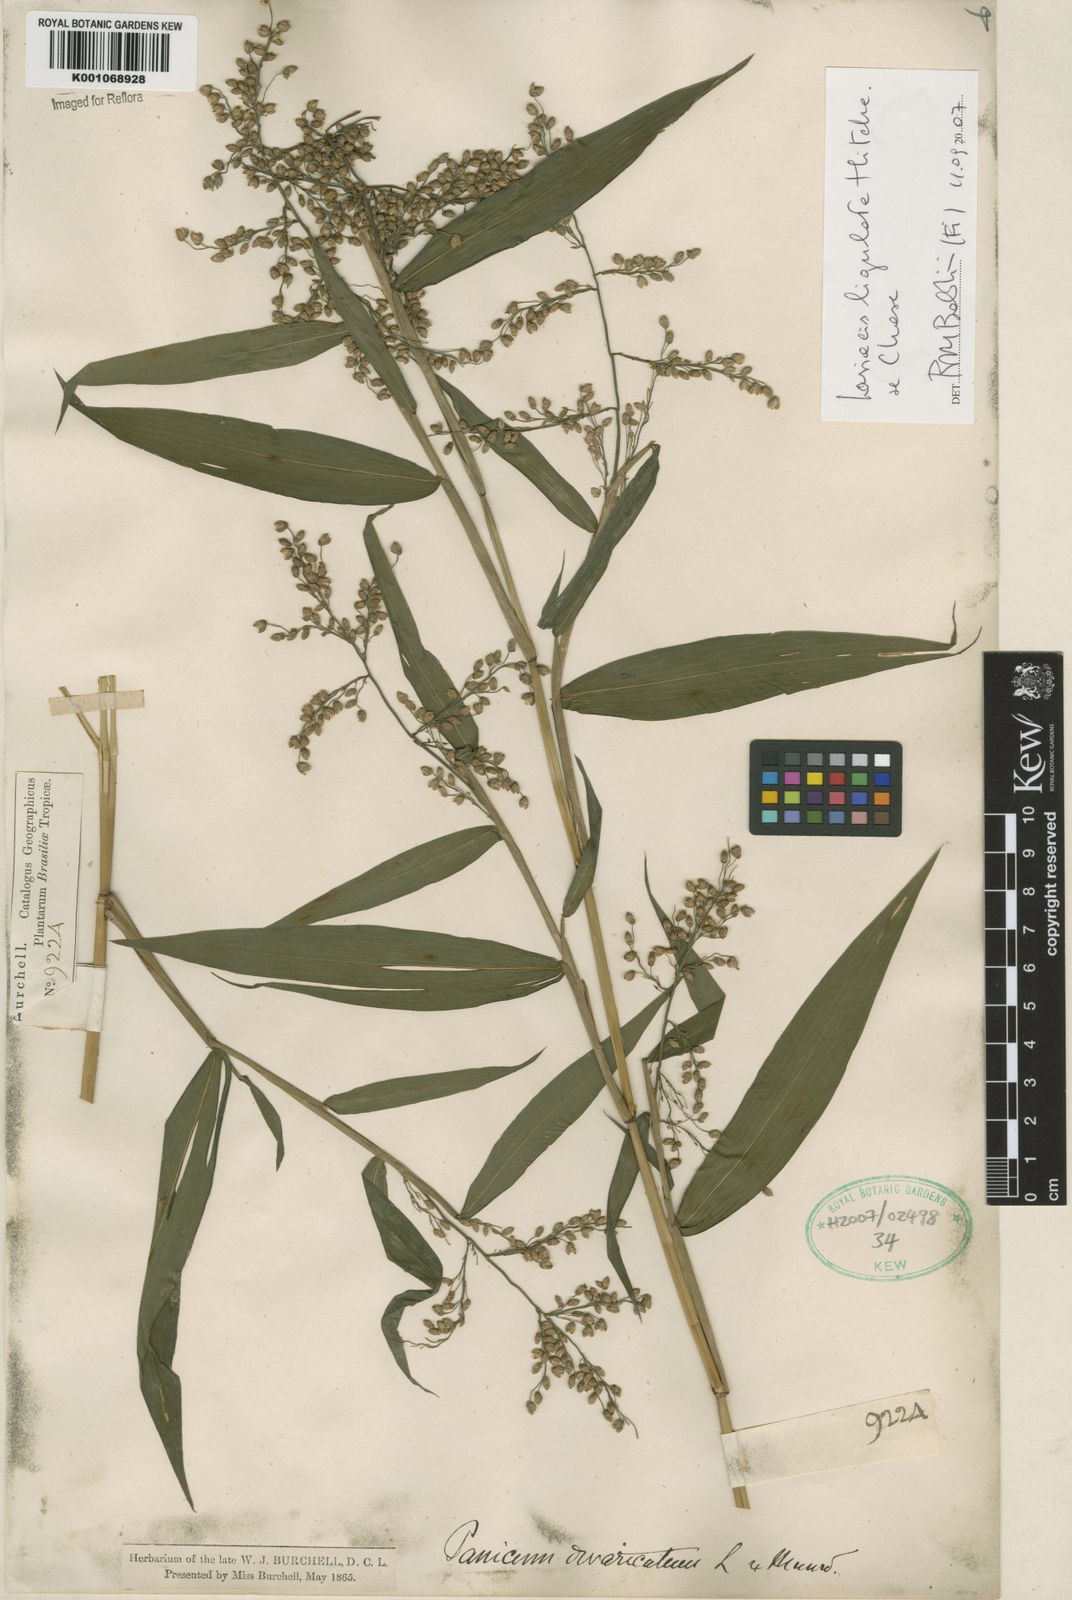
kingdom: Plantae
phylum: Tracheophyta
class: Liliopsida
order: Poales
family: Poaceae
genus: Lasiacis
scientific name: Lasiacis ligulata
